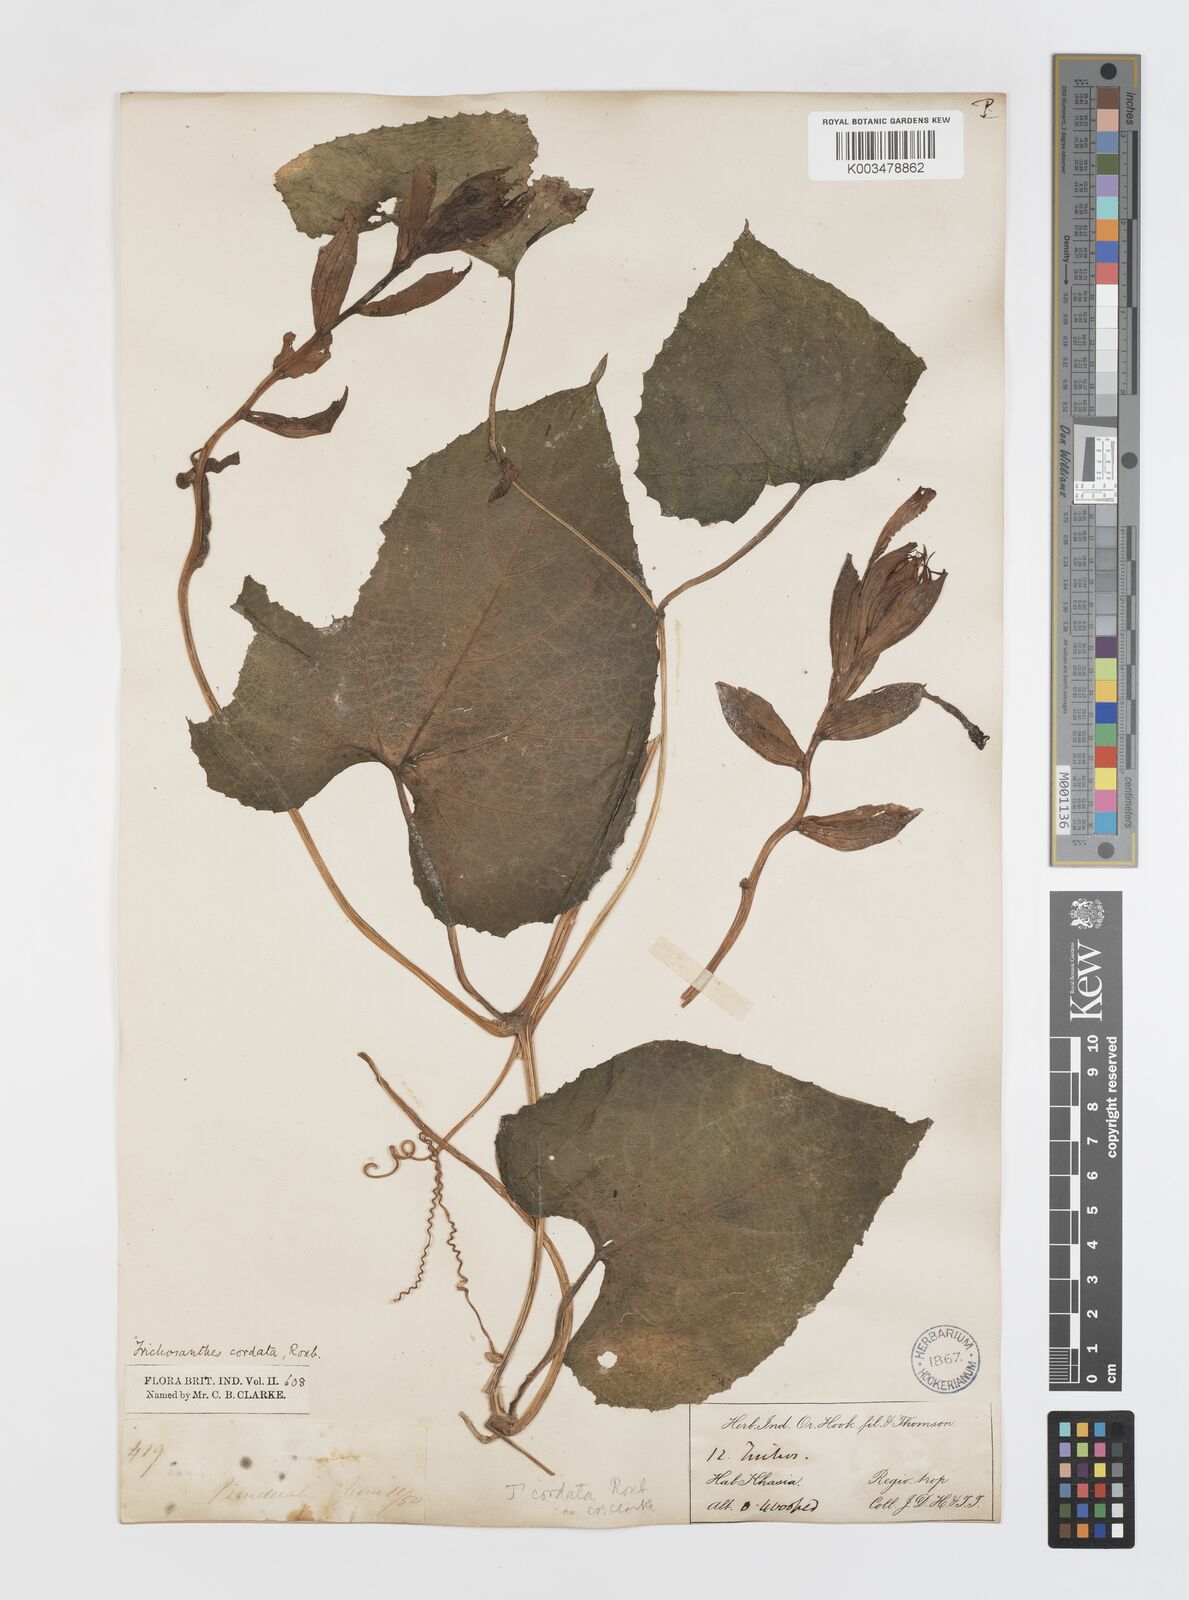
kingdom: Plantae
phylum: Tracheophyta
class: Magnoliopsida
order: Cucurbitales
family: Cucurbitaceae
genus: Trichosanthes
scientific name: Trichosanthes cordata
